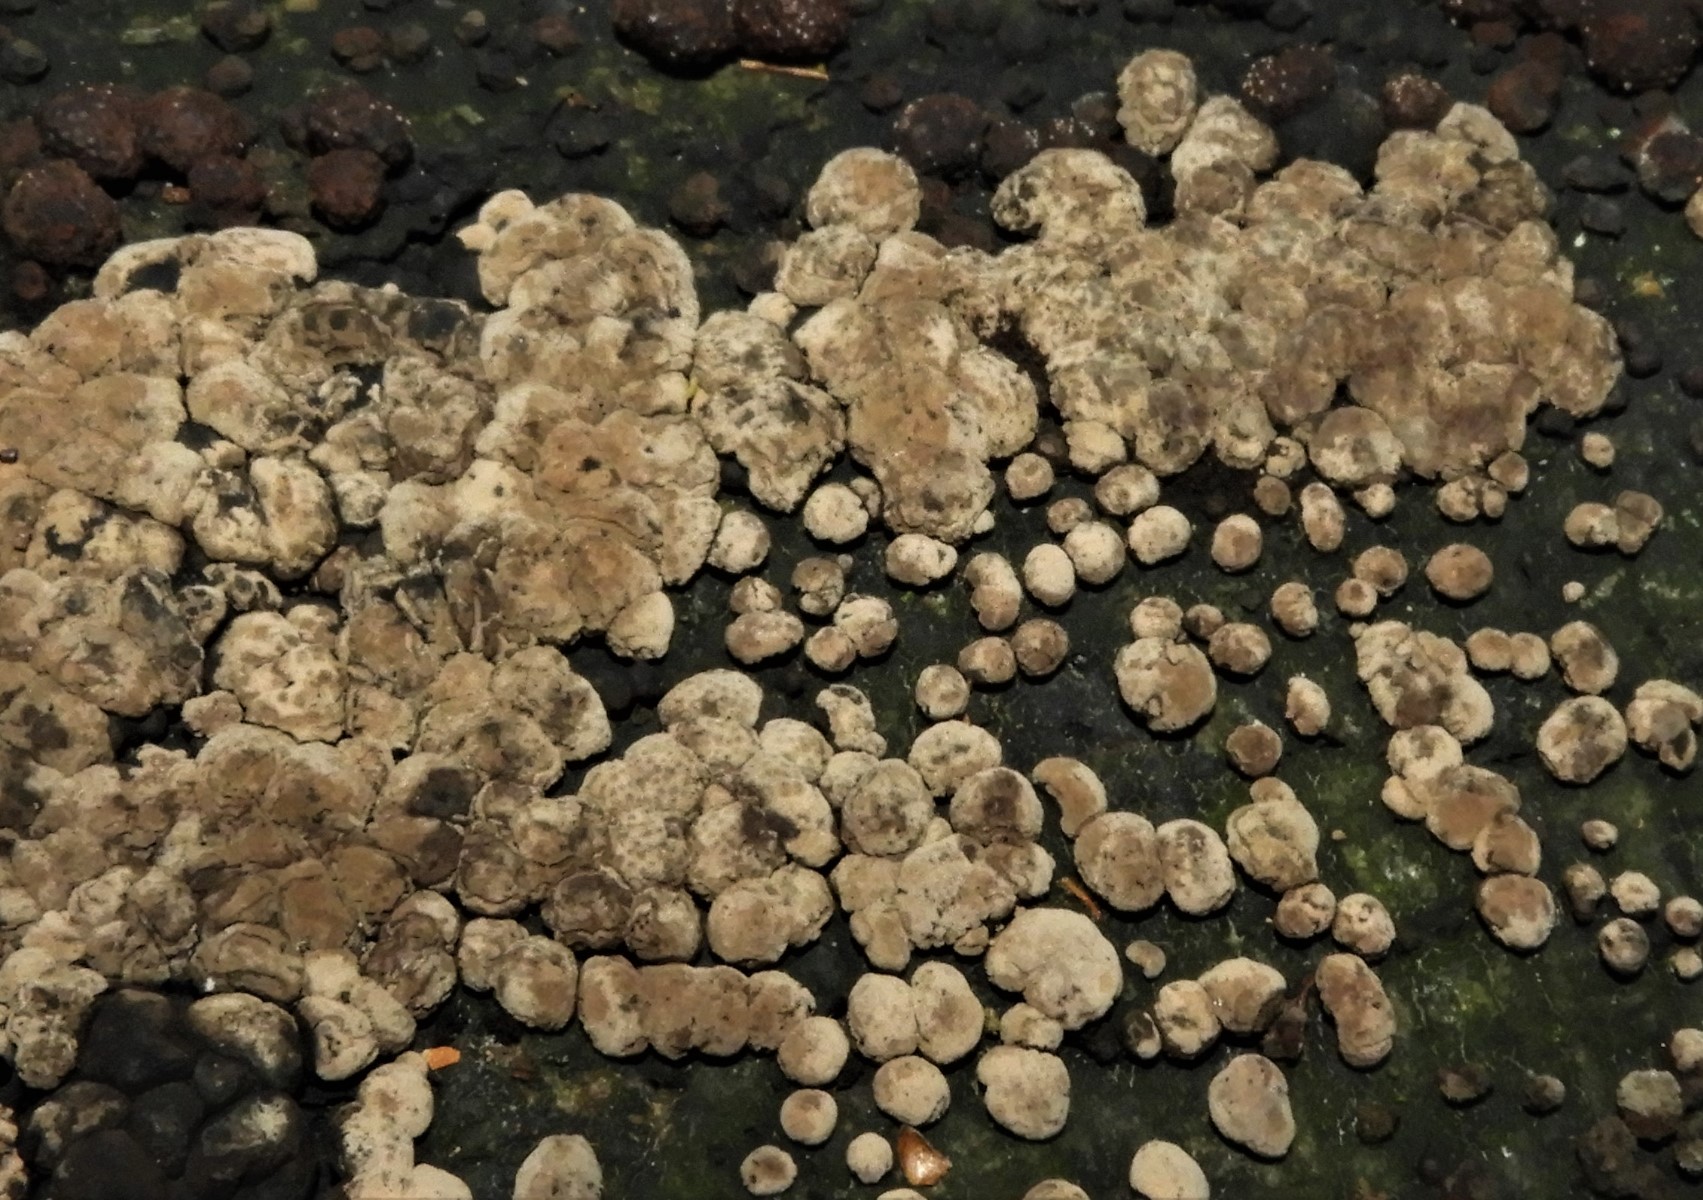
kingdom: Fungi
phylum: Ascomycota
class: Sordariomycetes
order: Xylariales
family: Hypoxylaceae
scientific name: Hypoxylaceae
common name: kulbærfamilien
